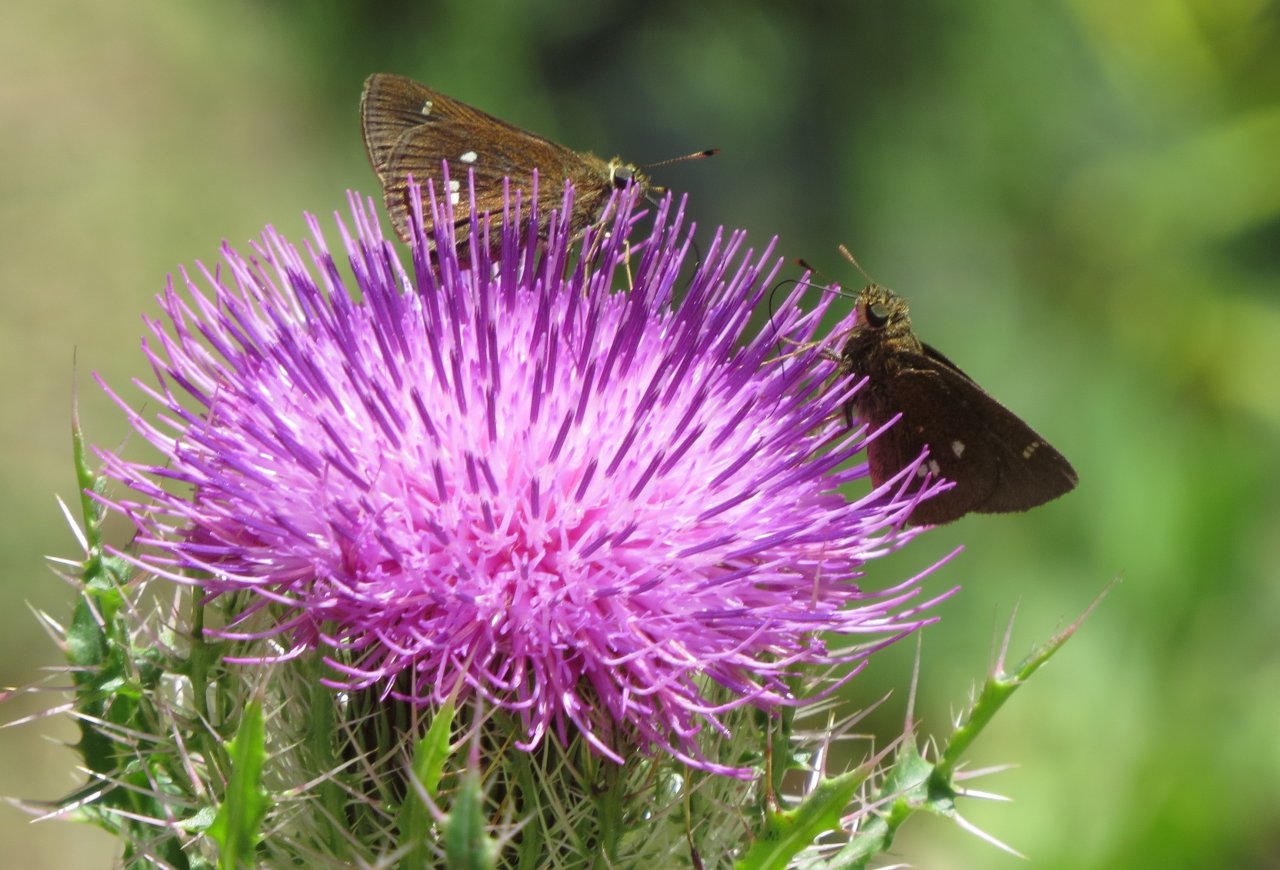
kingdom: Animalia
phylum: Arthropoda
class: Insecta
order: Lepidoptera
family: Hesperiidae
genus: Oligoria
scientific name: Oligoria maculata
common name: Twin-spot Skipper
